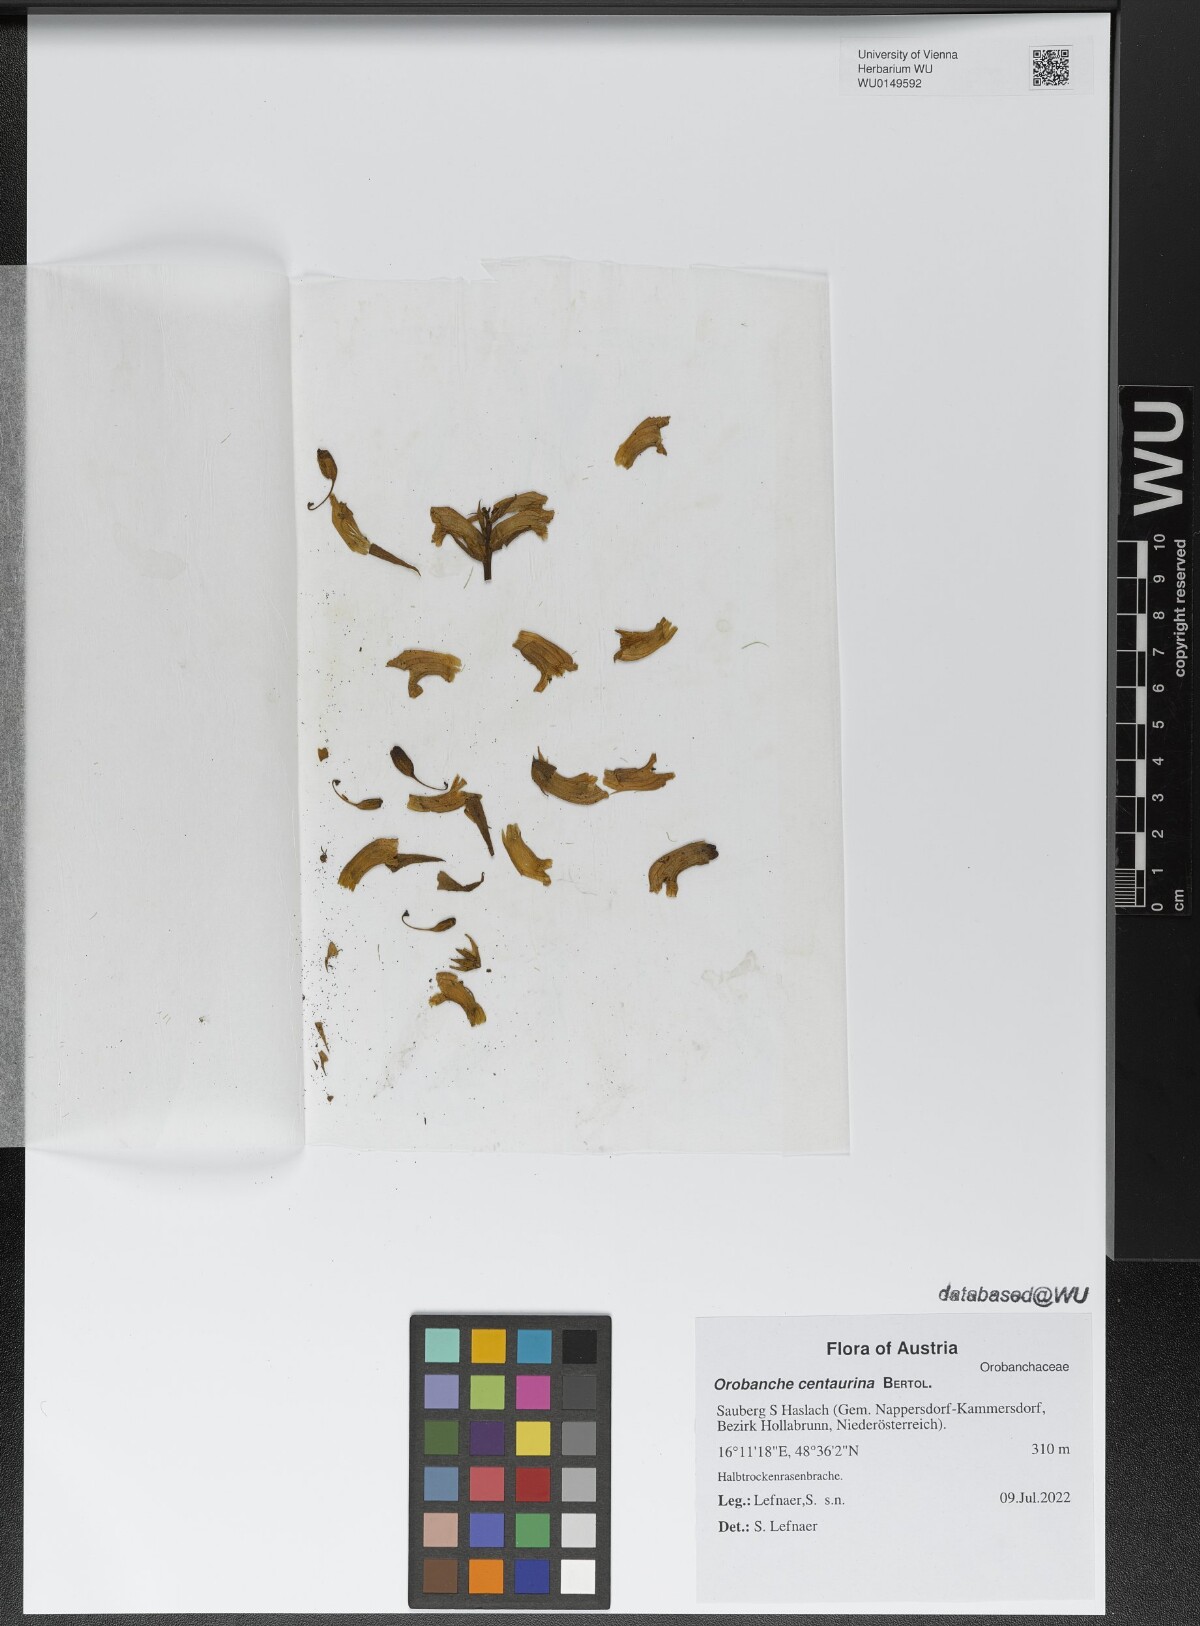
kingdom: Plantae
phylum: Tracheophyta
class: Magnoliopsida
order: Lamiales
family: Orobanchaceae
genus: Orobanche
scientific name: Orobanche centaurina
